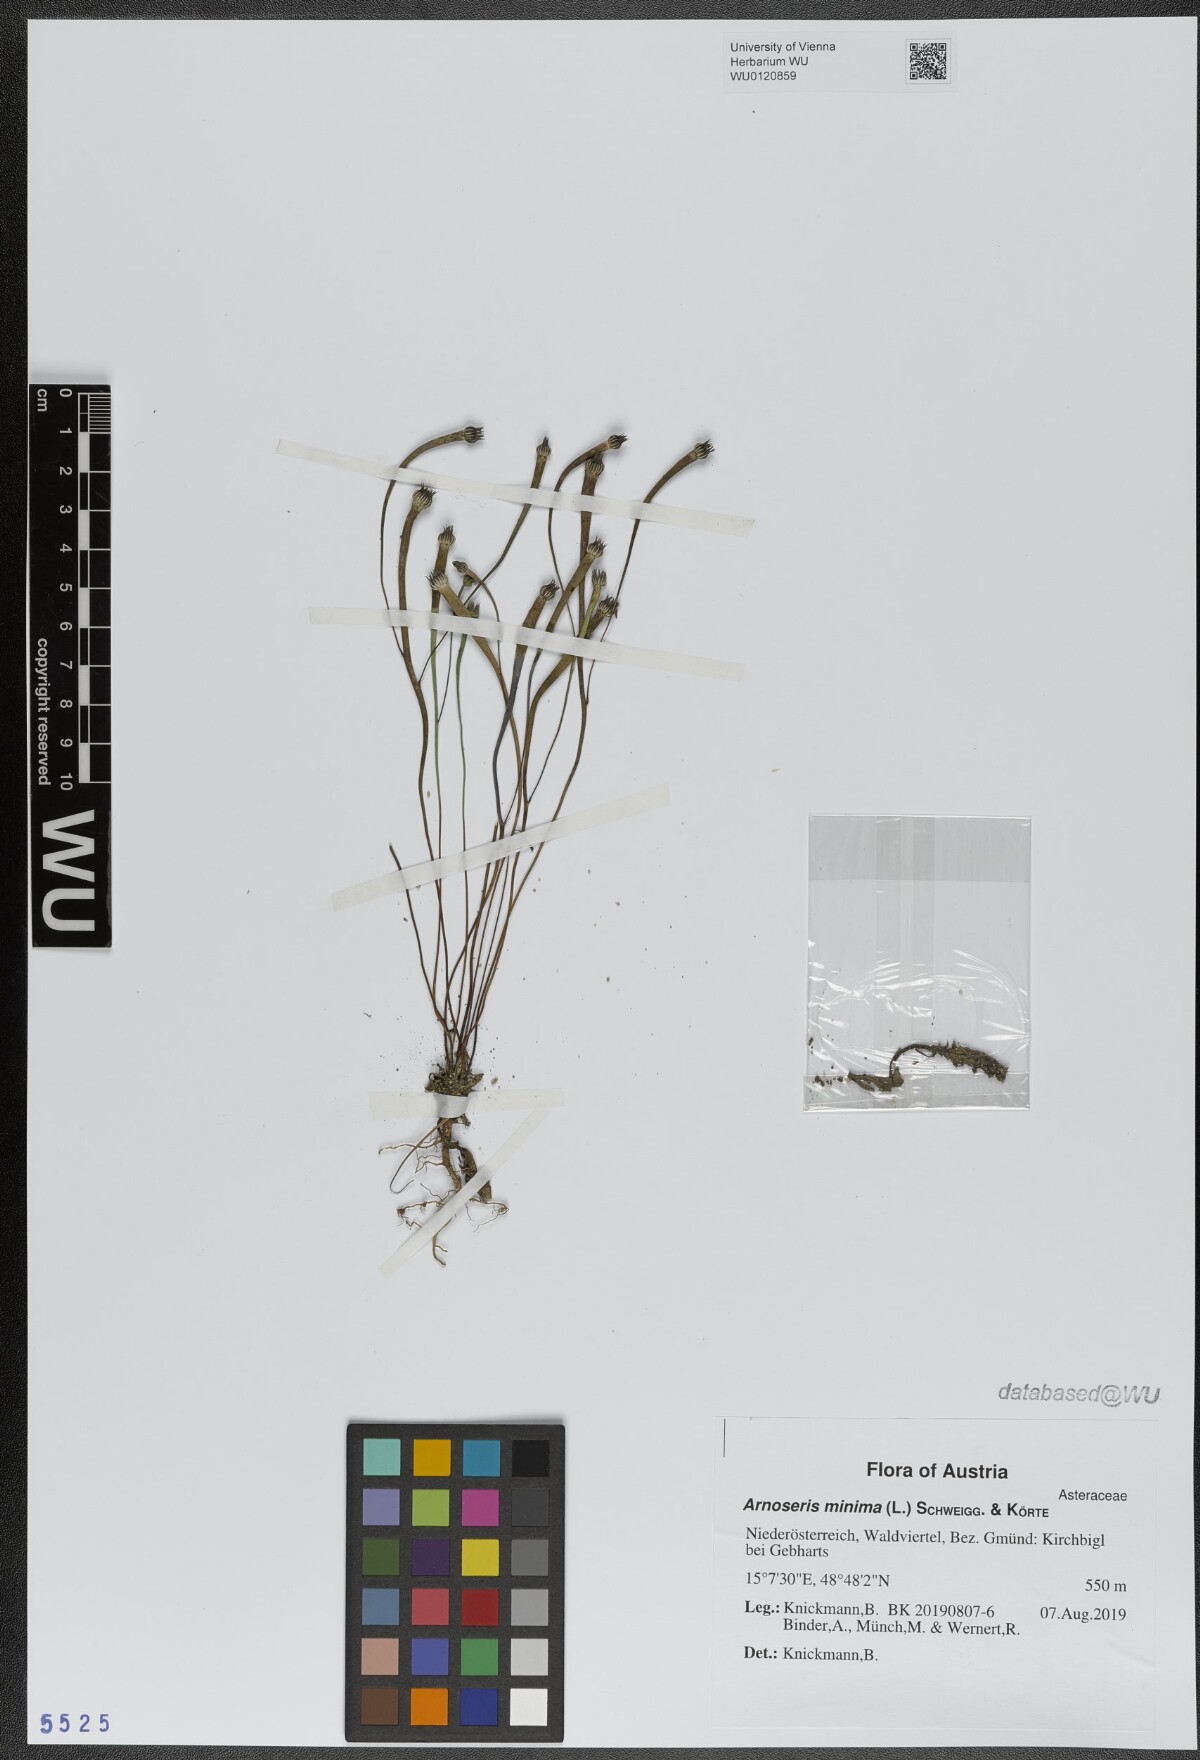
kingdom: Plantae
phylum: Tracheophyta
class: Magnoliopsida
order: Asterales
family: Asteraceae
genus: Arnoseris
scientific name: Arnoseris minima
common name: Lamb's succory
